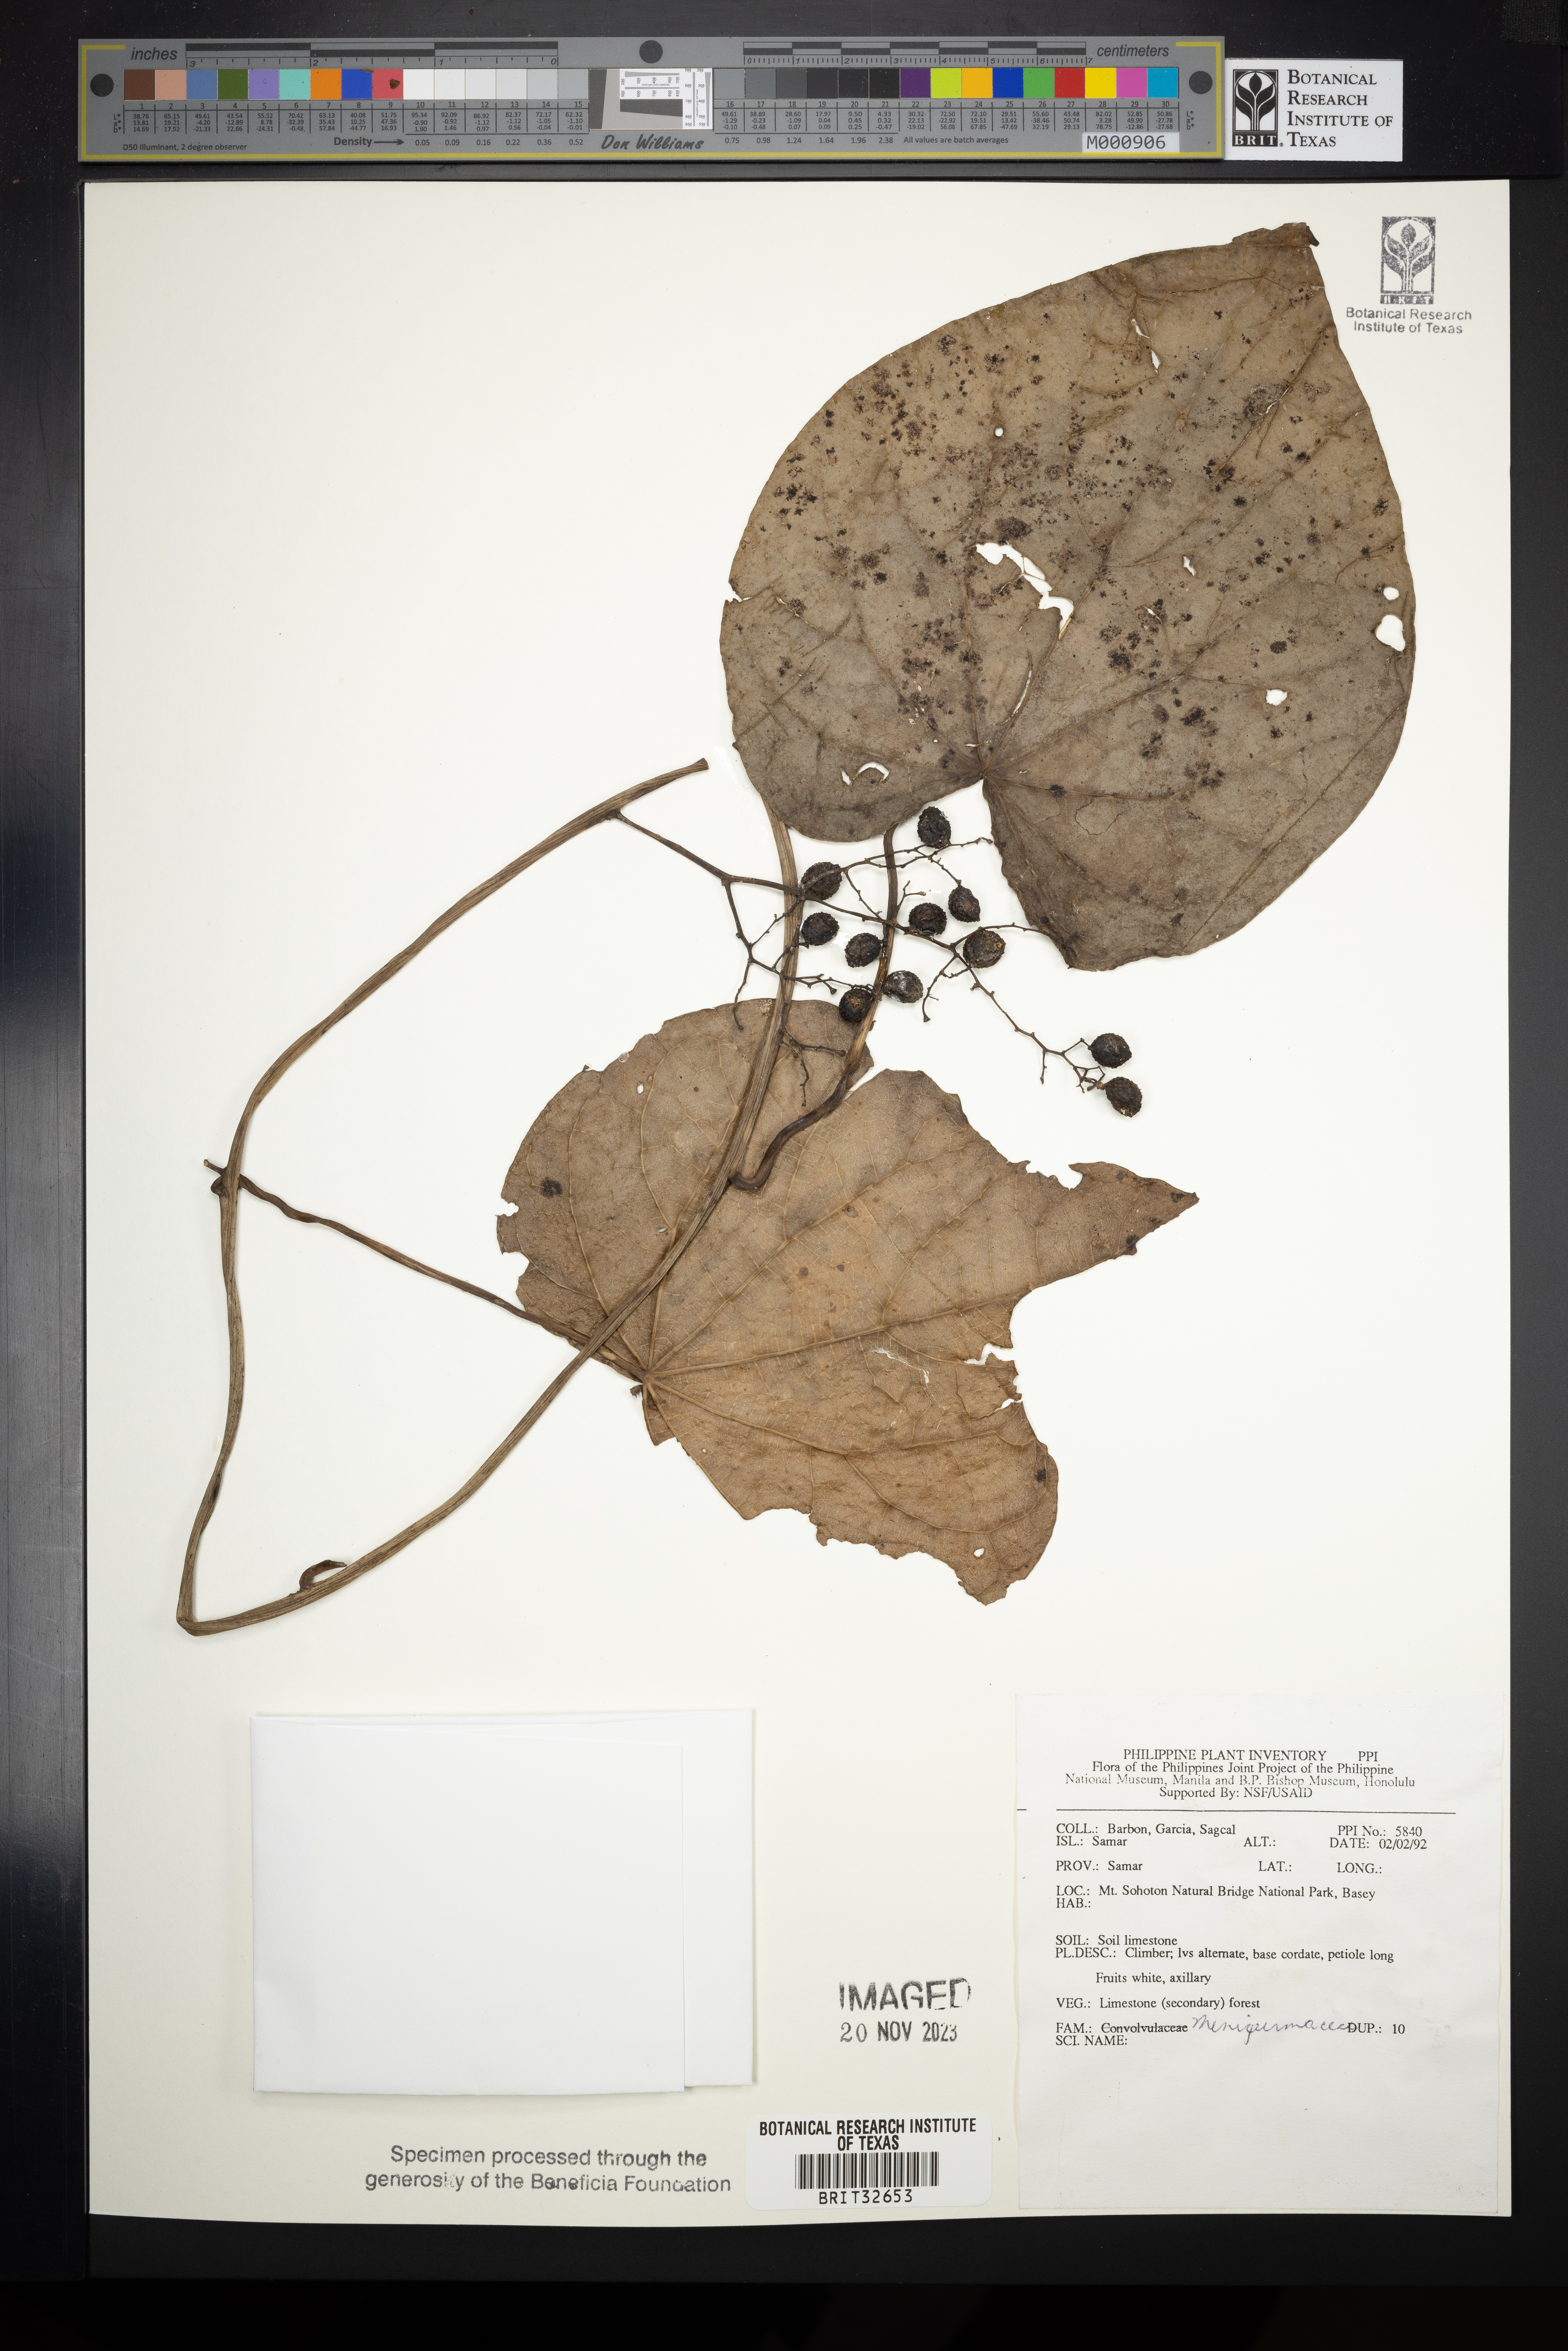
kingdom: Plantae
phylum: Tracheophyta
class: Magnoliopsida
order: Ranunculales
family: Menispermaceae
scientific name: Menispermaceae
